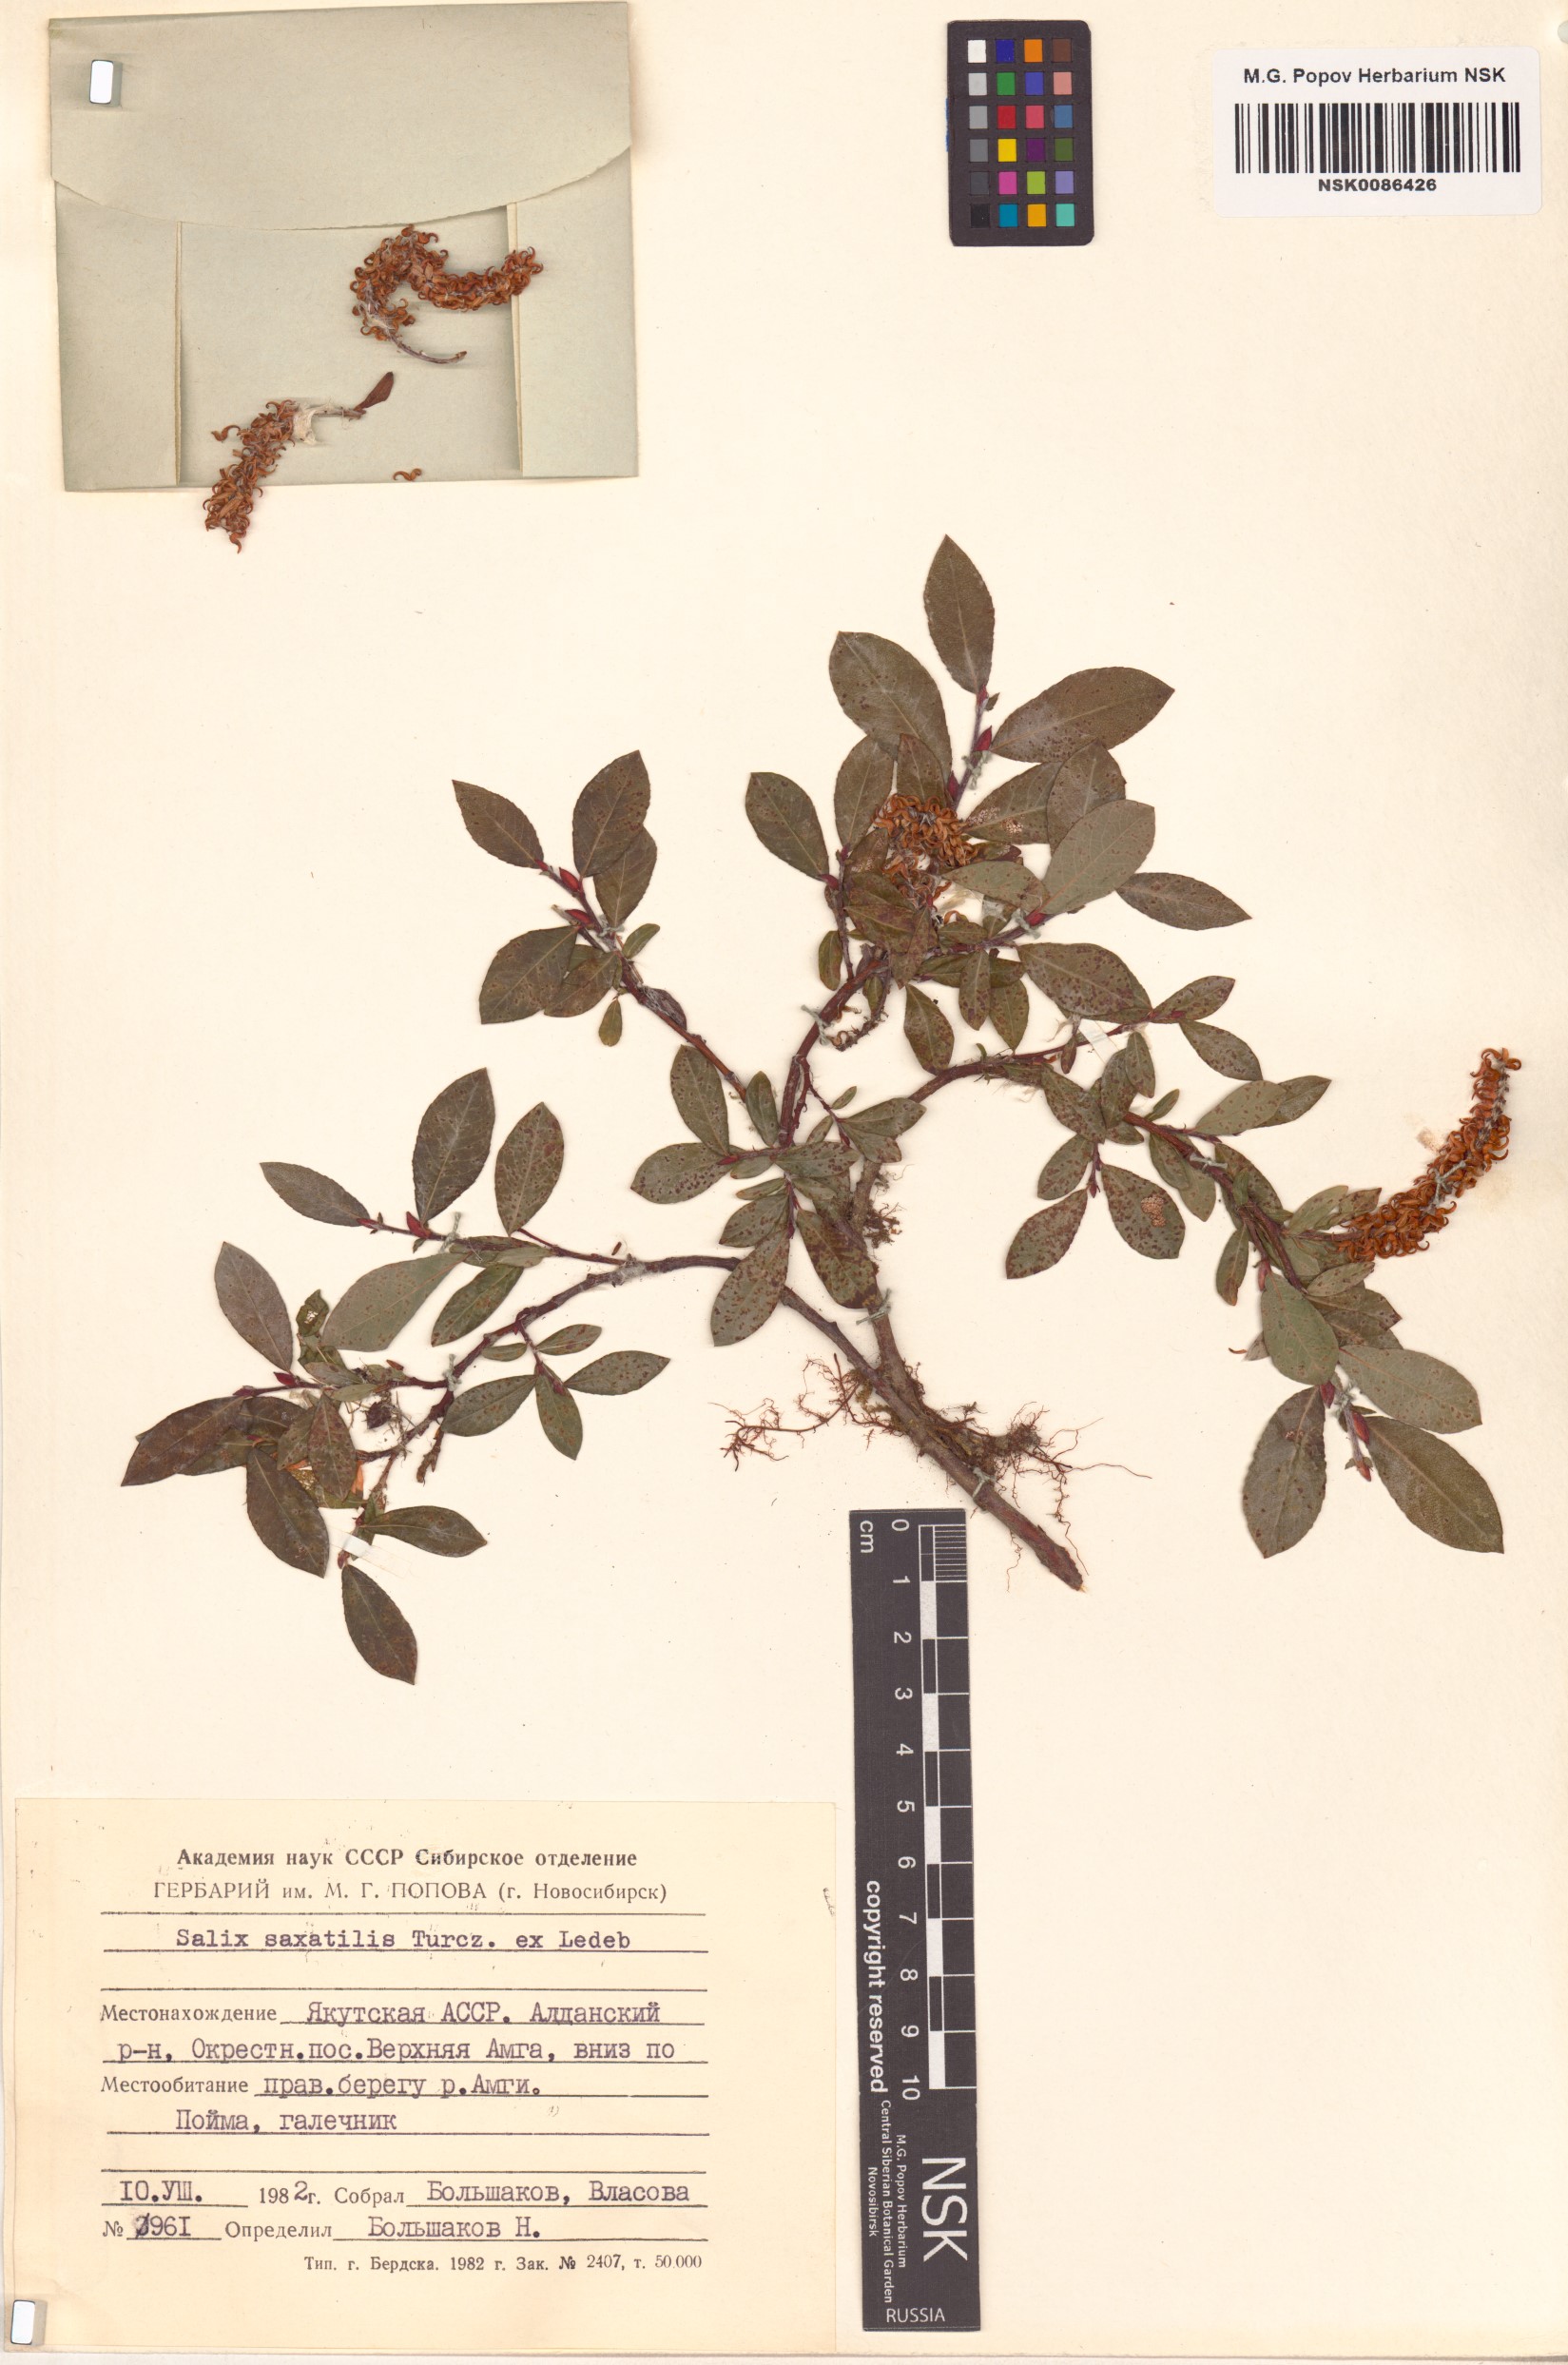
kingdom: Plantae
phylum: Tracheophyta
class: Magnoliopsida
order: Malpighiales
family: Salicaceae
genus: Salix
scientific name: Salix saxatilis
